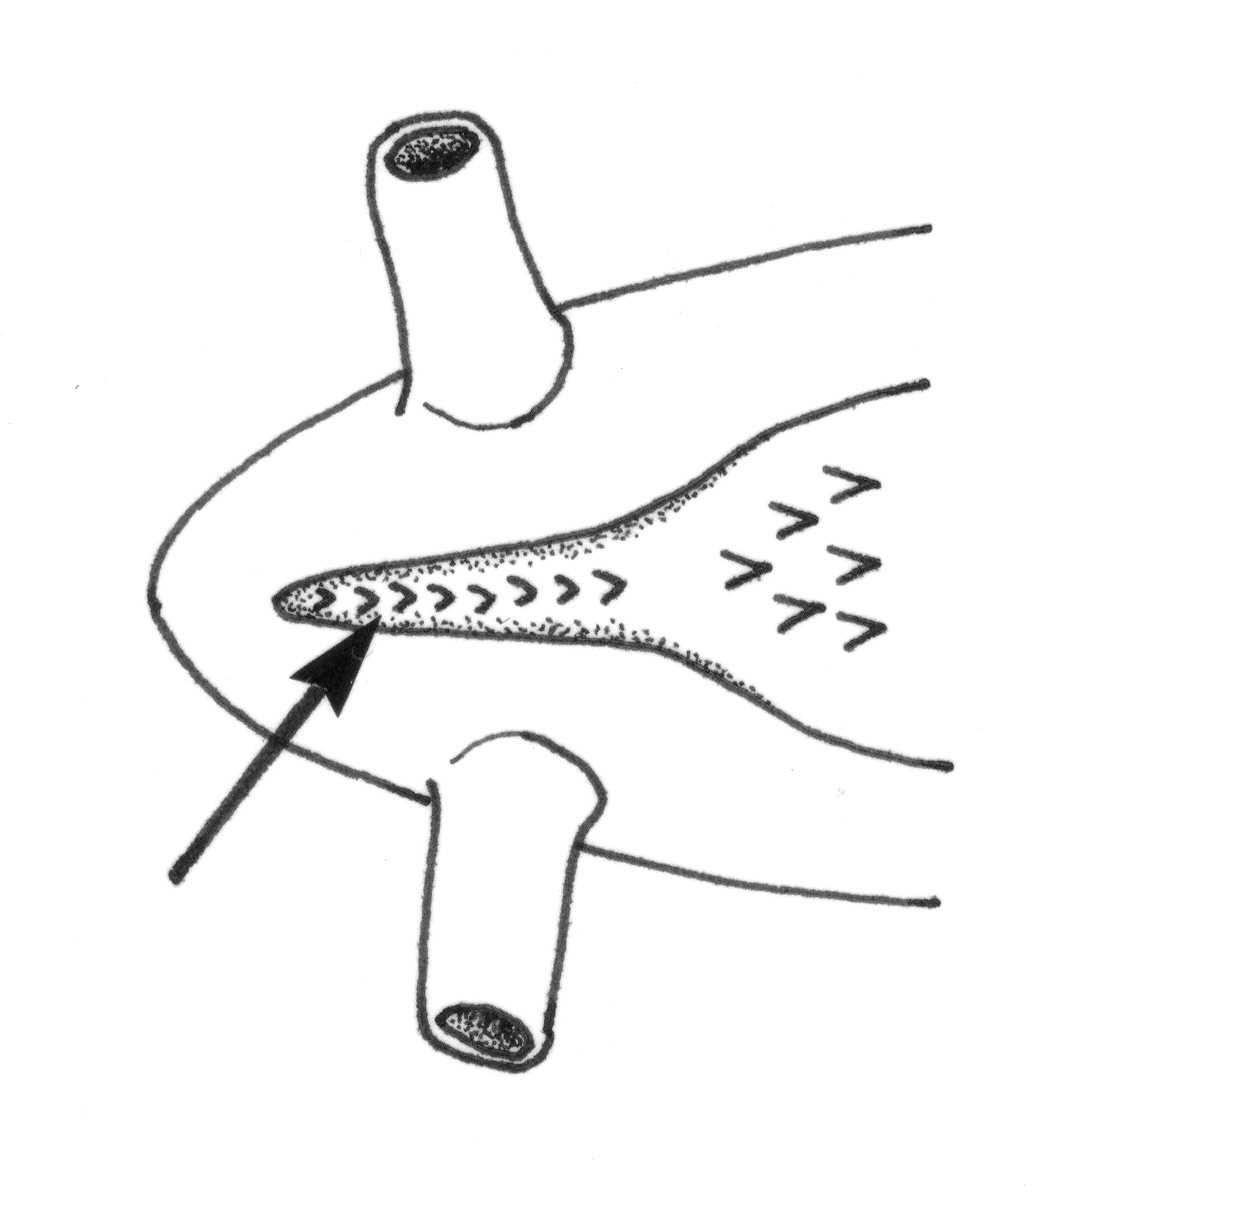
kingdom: Animalia
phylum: Chordata
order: Anguilliformes
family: Ophichthidae
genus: Schismorhynchus
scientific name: Schismorhynchus
